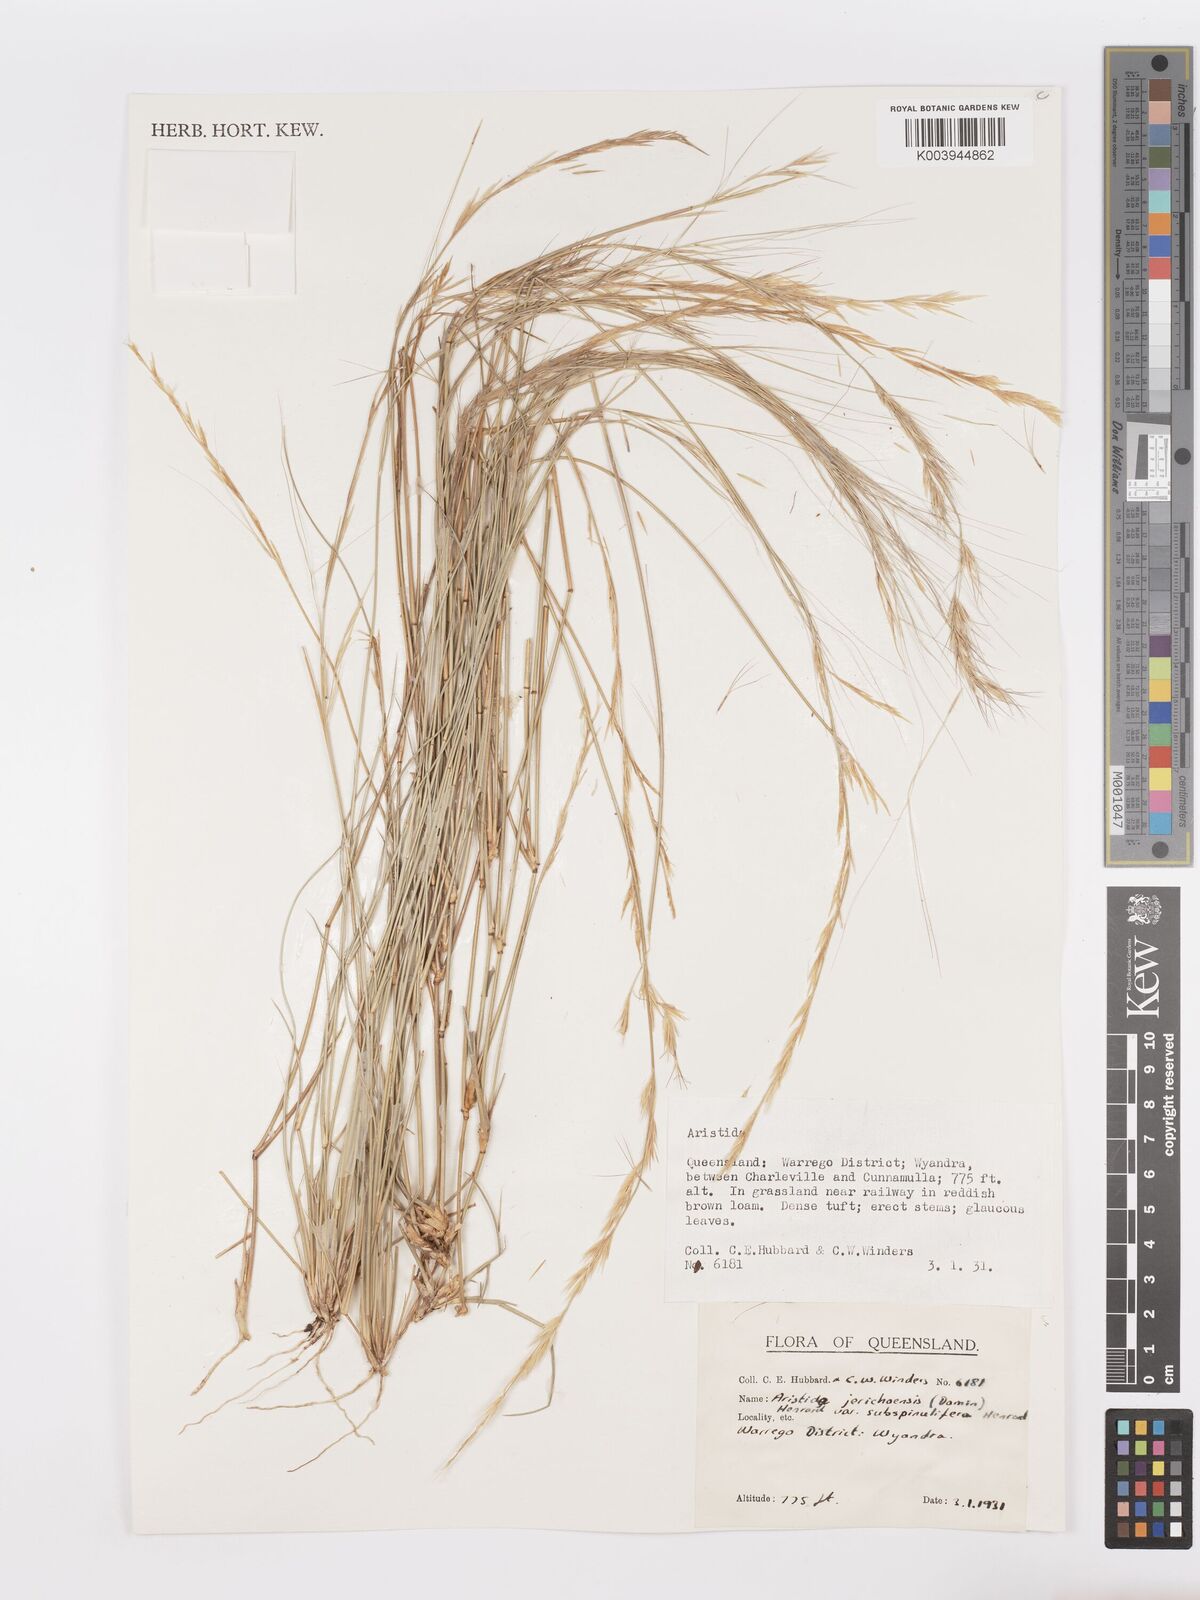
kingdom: Plantae
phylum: Tracheophyta
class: Liliopsida
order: Poales
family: Poaceae
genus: Aristida
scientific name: Aristida jerichoensis
